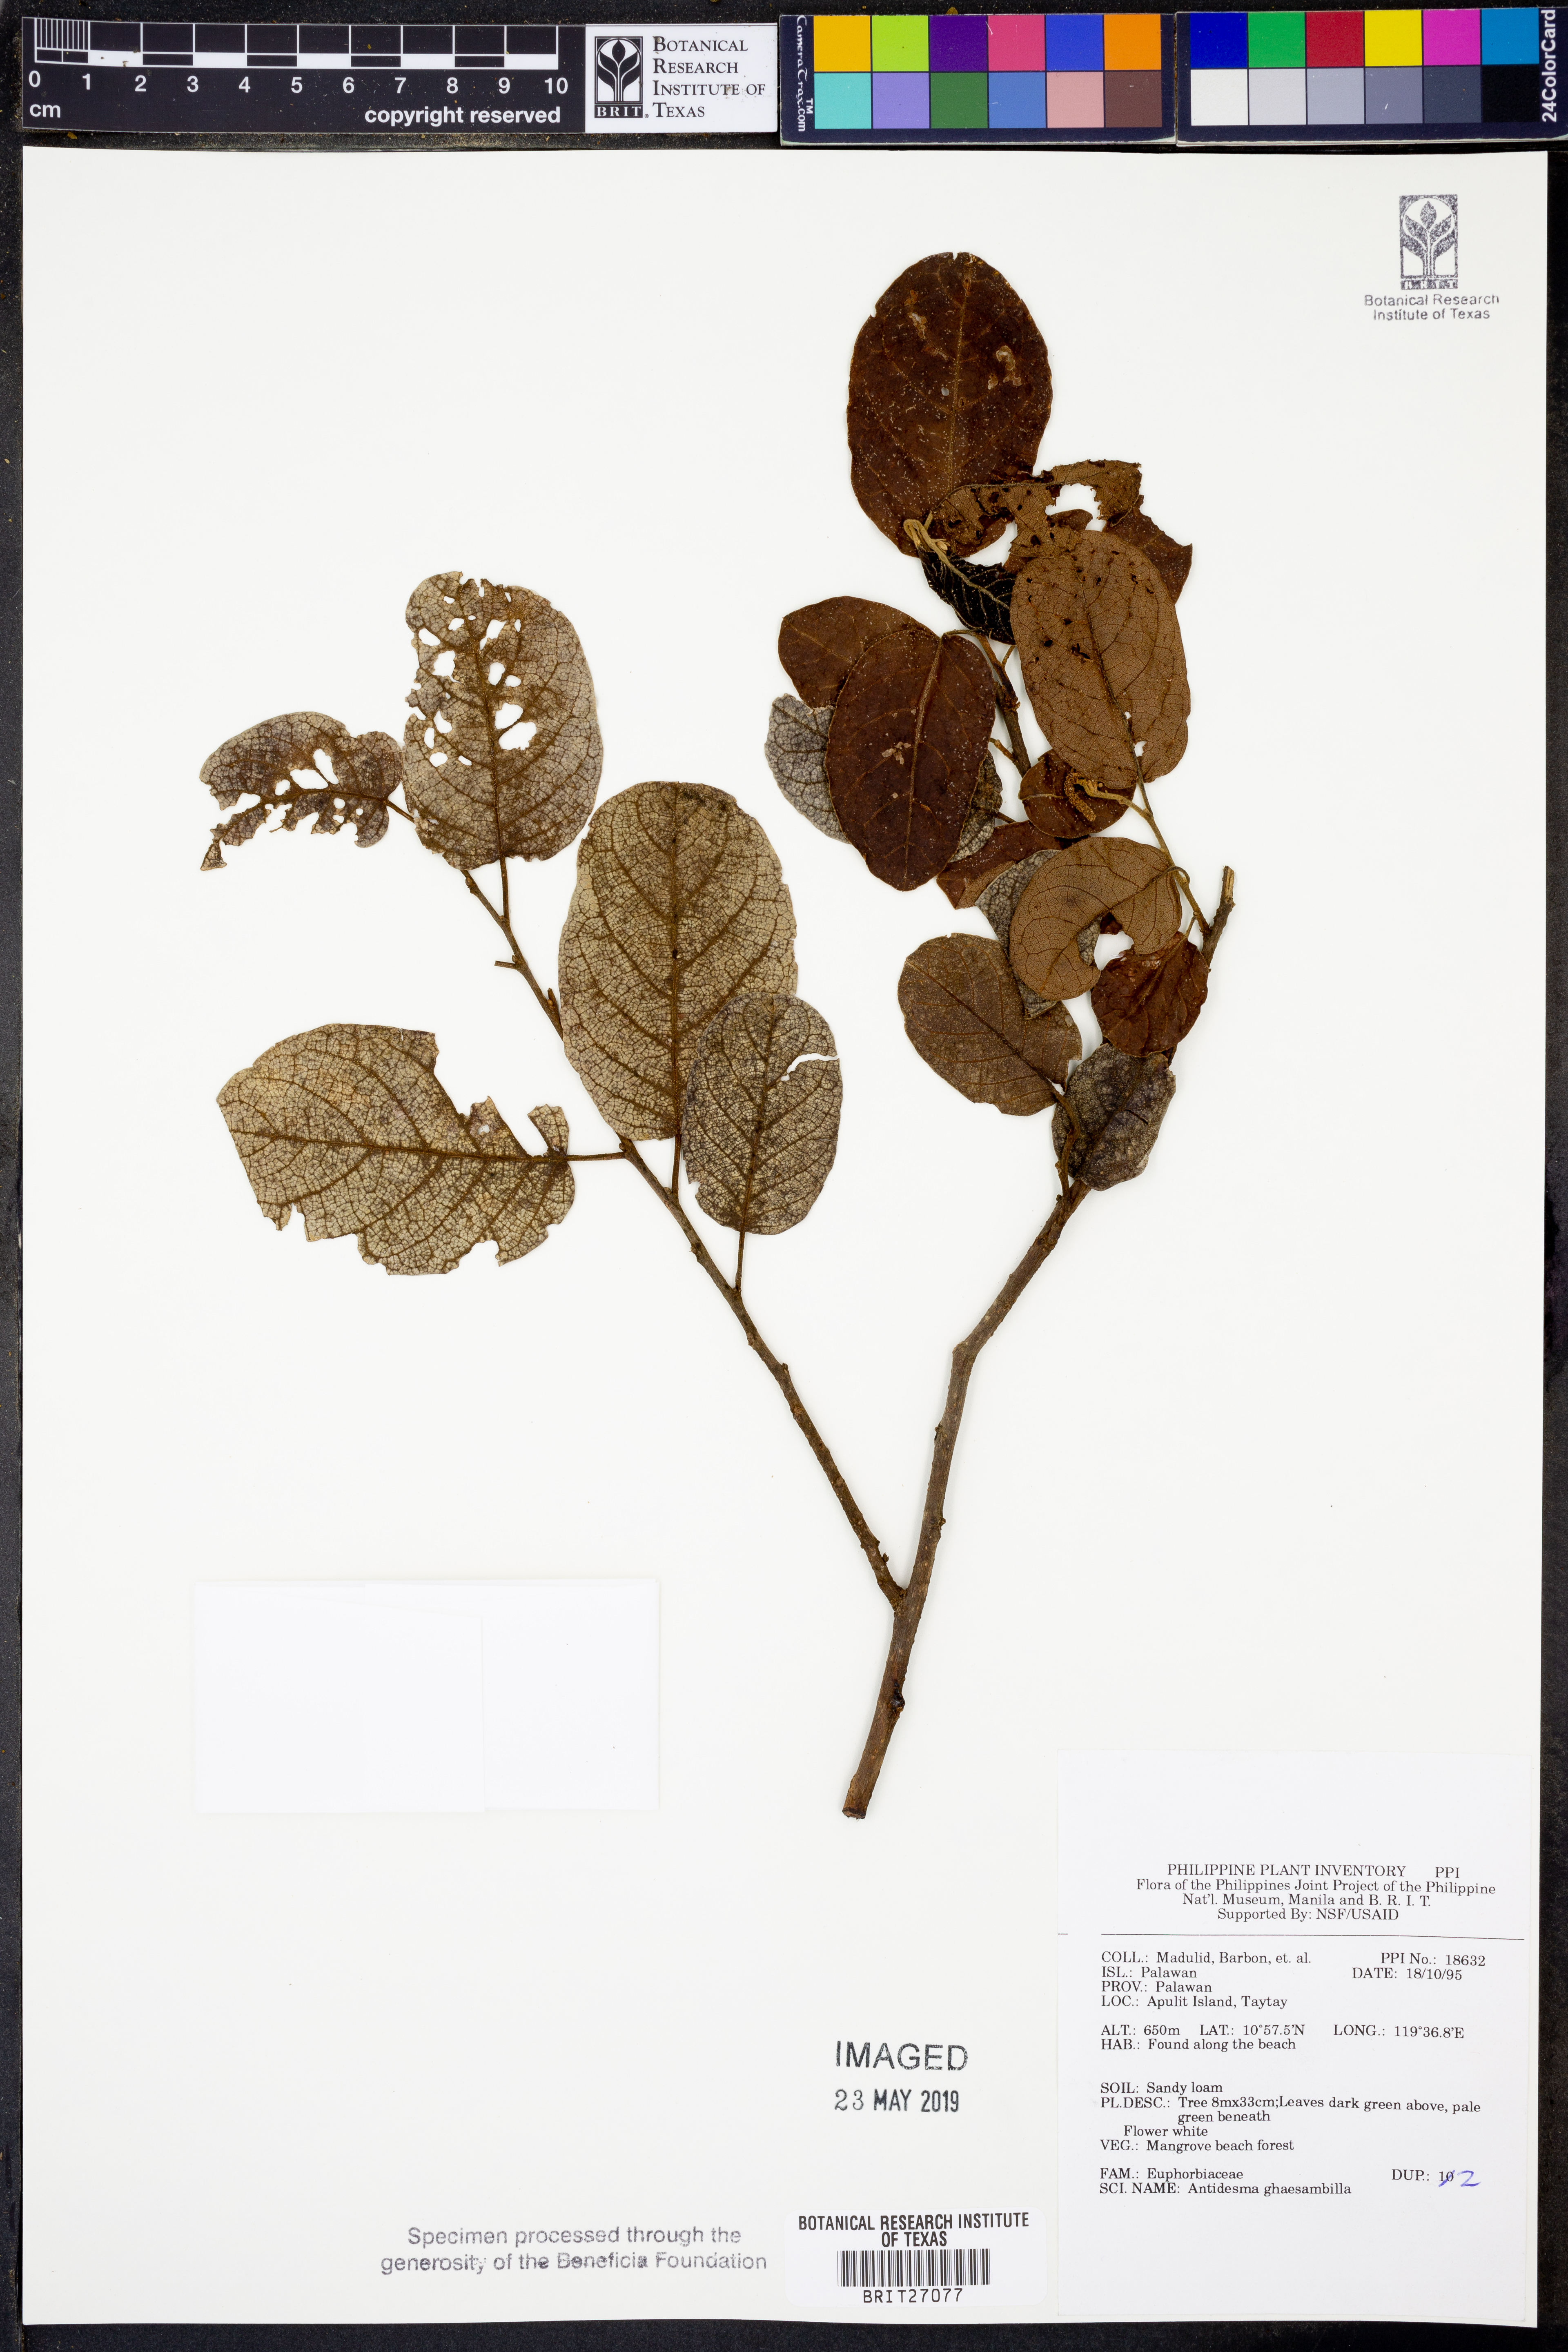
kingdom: Plantae
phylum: Tracheophyta
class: Magnoliopsida
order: Malpighiales
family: Phyllanthaceae
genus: Antidesma
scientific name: Antidesma ghaesembilla
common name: Black currant-tree
